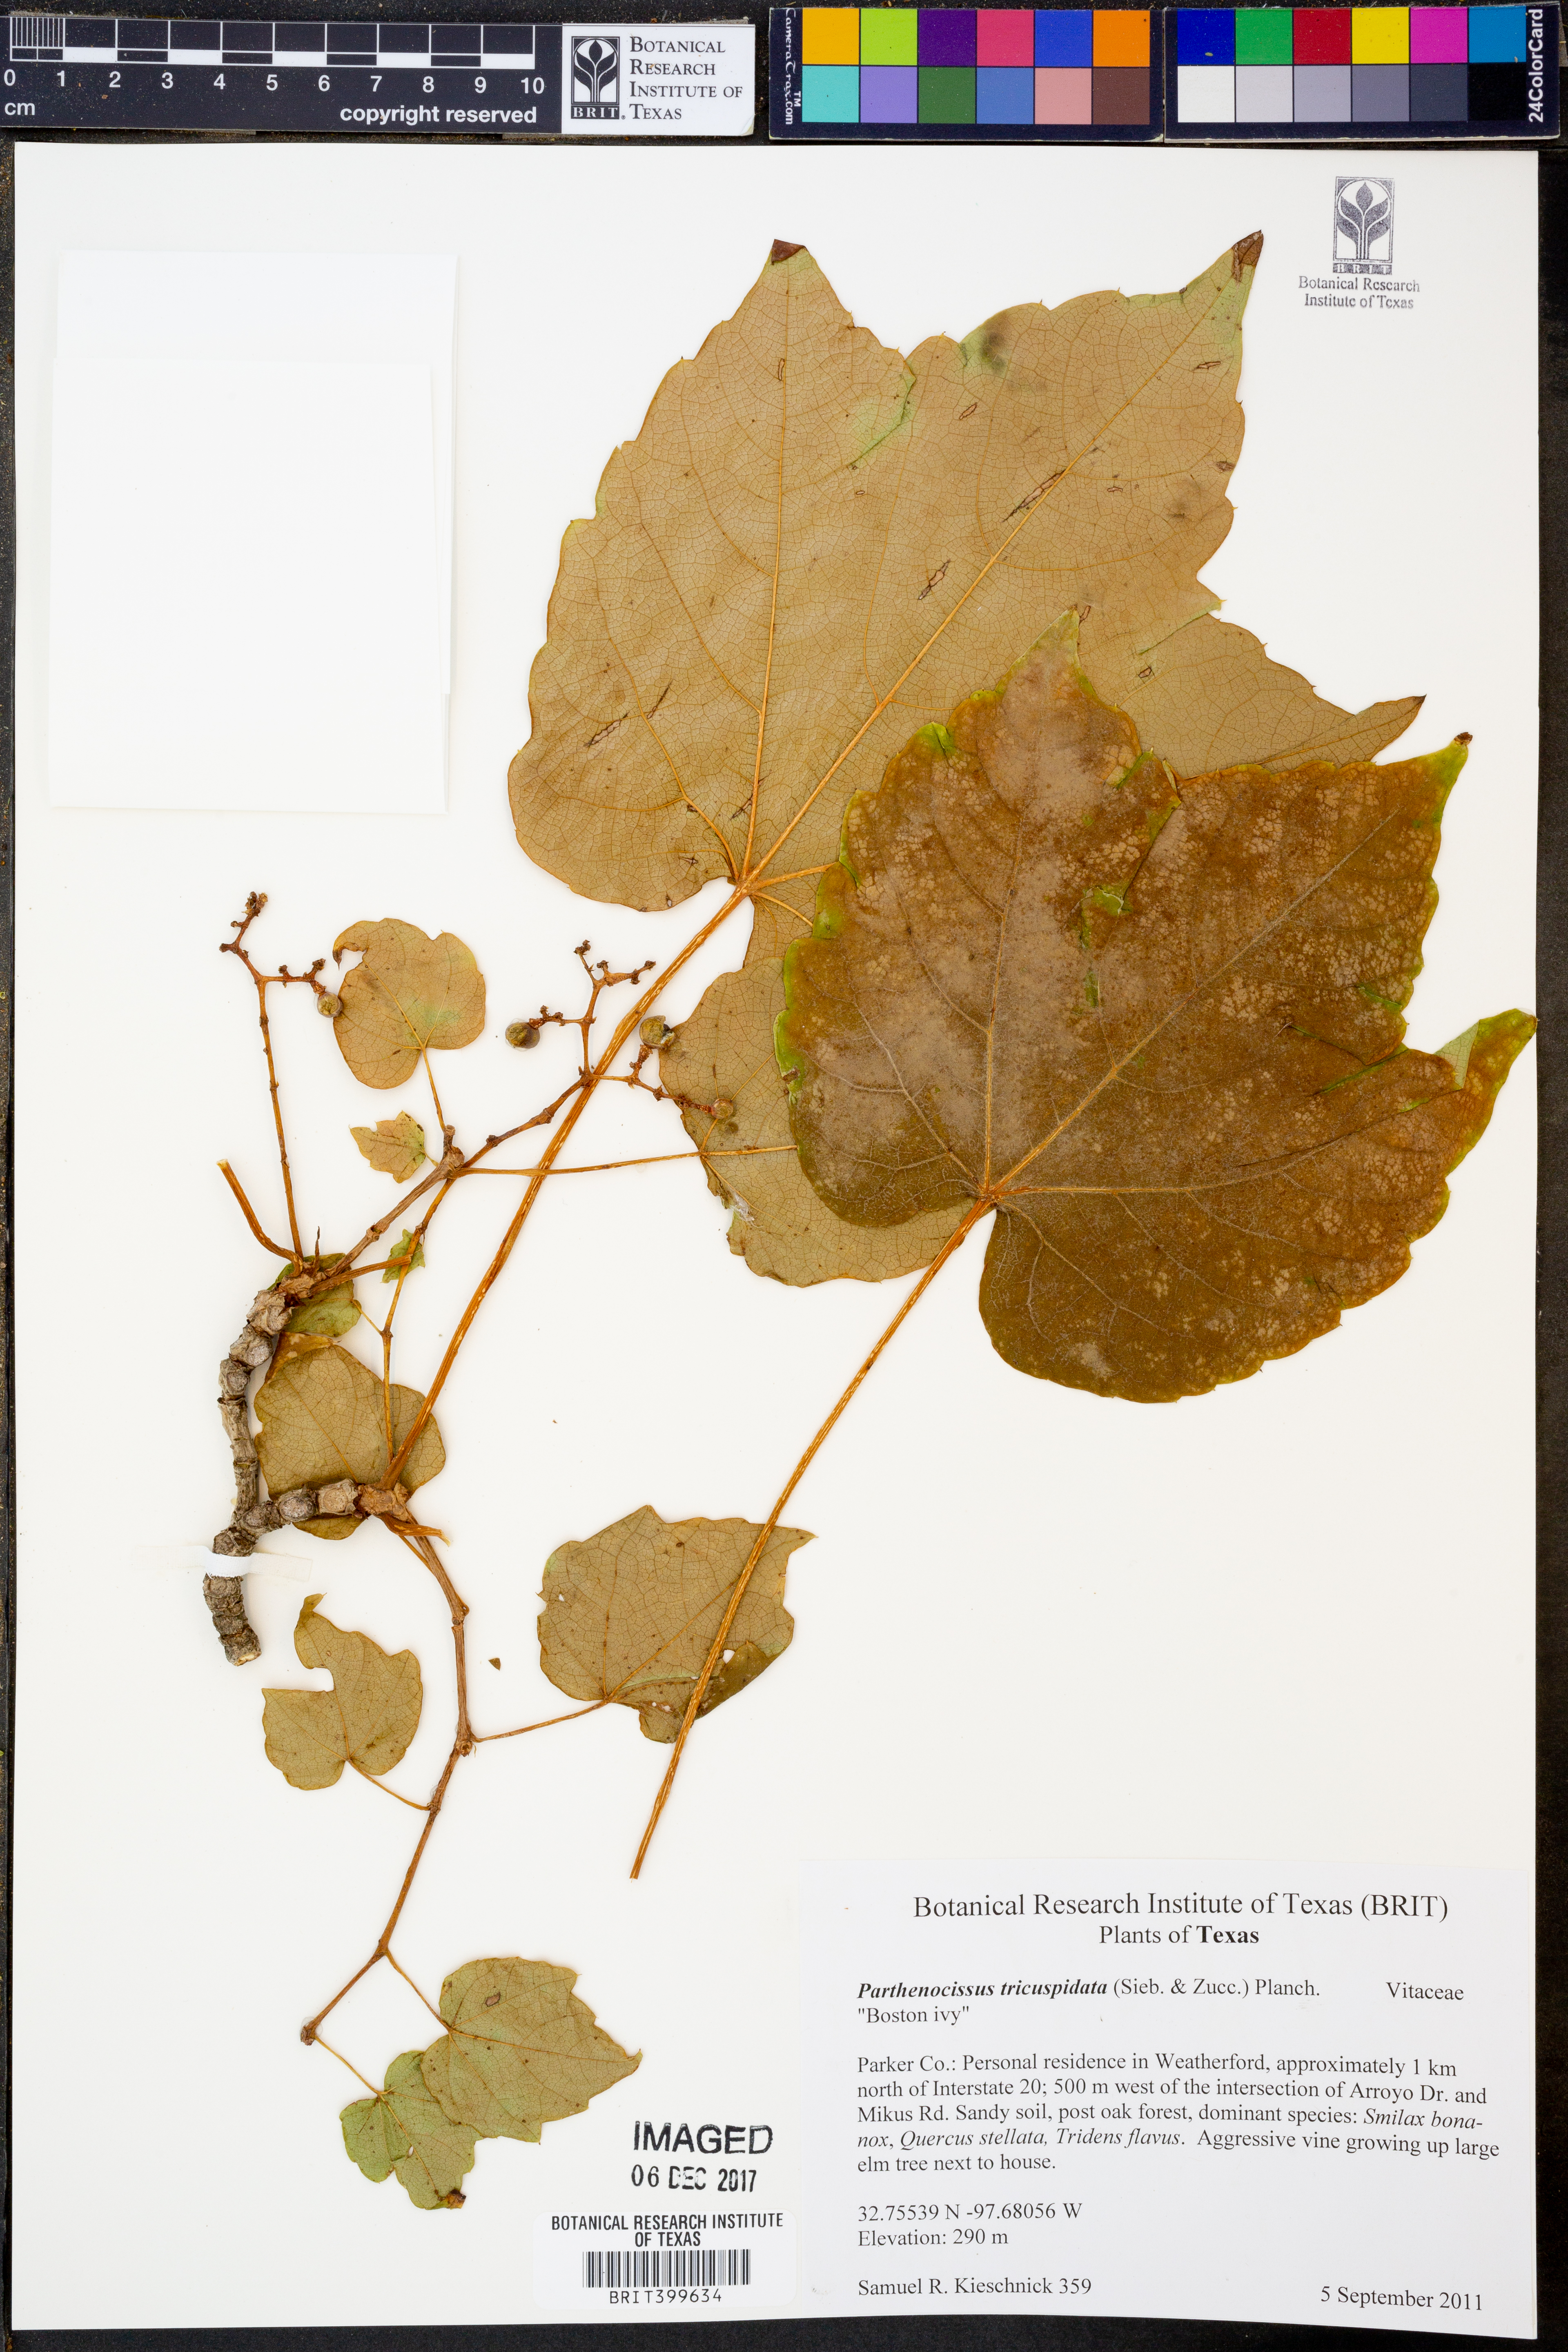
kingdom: Plantae
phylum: Tracheophyta
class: Magnoliopsida
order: Vitales
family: Vitaceae
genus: Parthenocissus
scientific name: Parthenocissus tricuspidata
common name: Boston ivy
